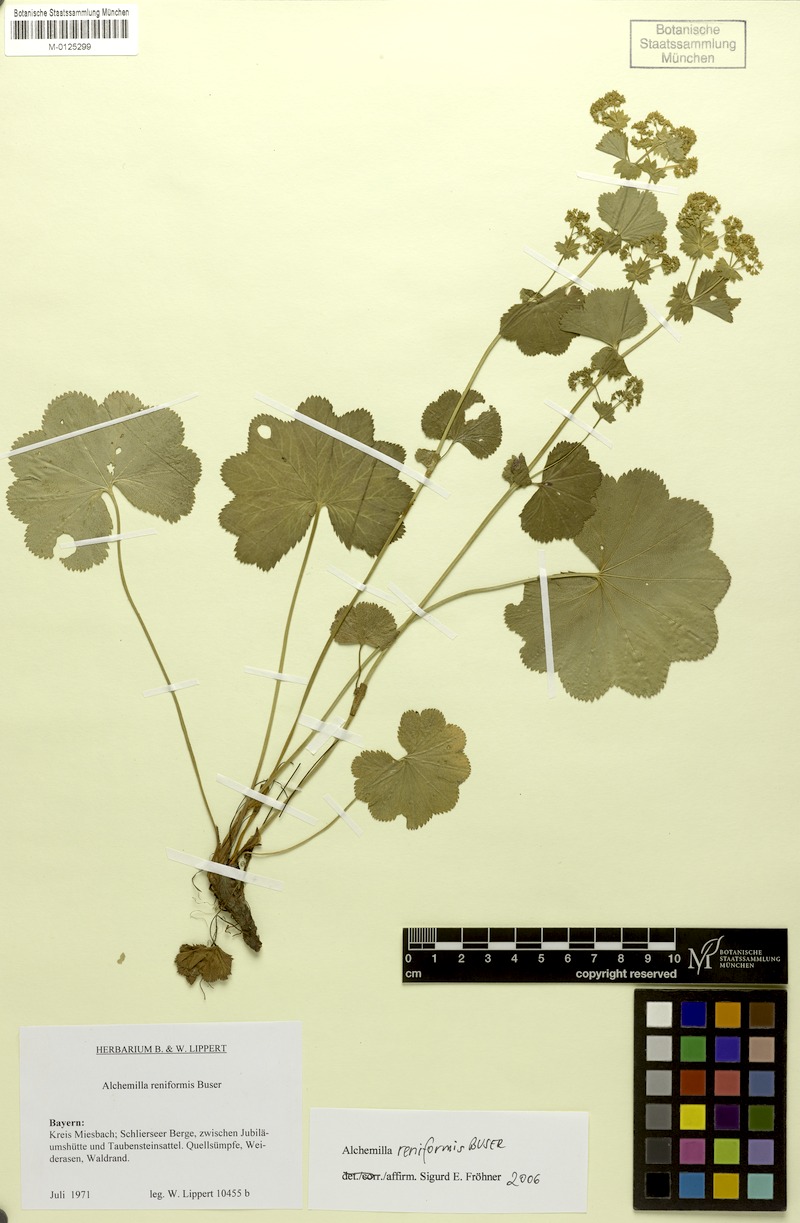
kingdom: Plantae
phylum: Tracheophyta
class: Magnoliopsida
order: Rosales
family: Rosaceae
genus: Alchemilla
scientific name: Alchemilla reniformis
